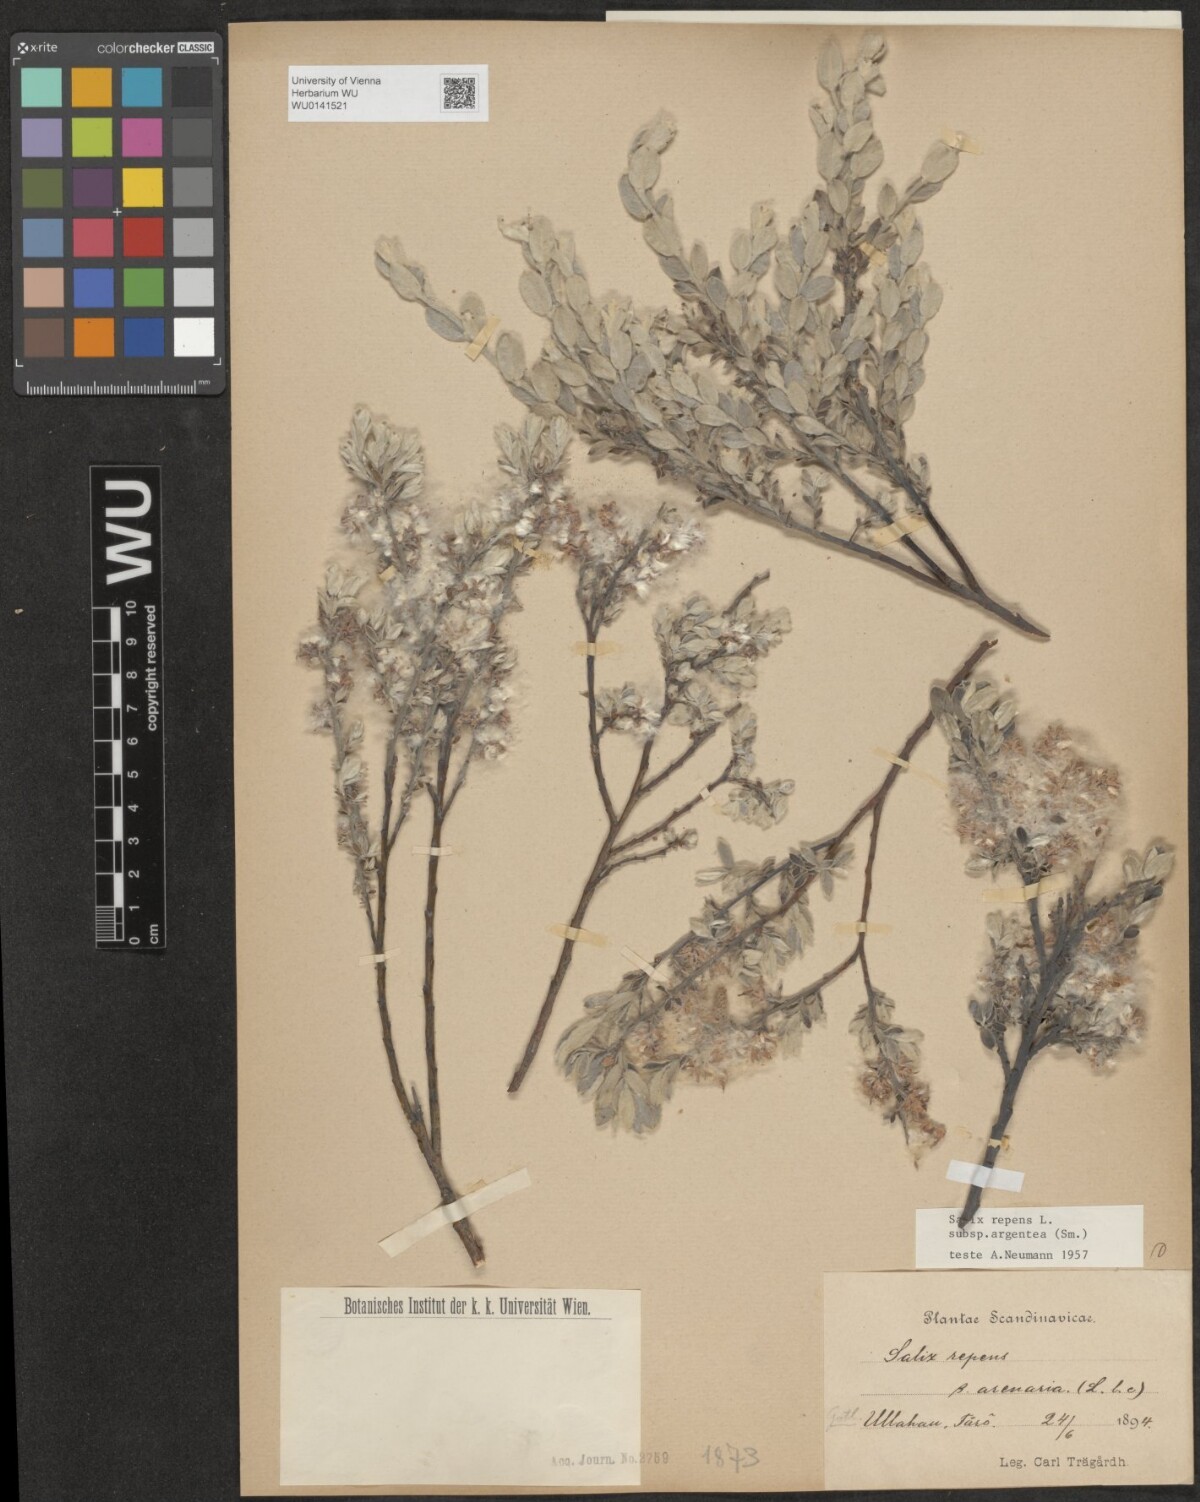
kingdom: Plantae
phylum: Tracheophyta
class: Magnoliopsida
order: Malpighiales
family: Salicaceae
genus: Salix
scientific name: Salix repens
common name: Creeping willow
